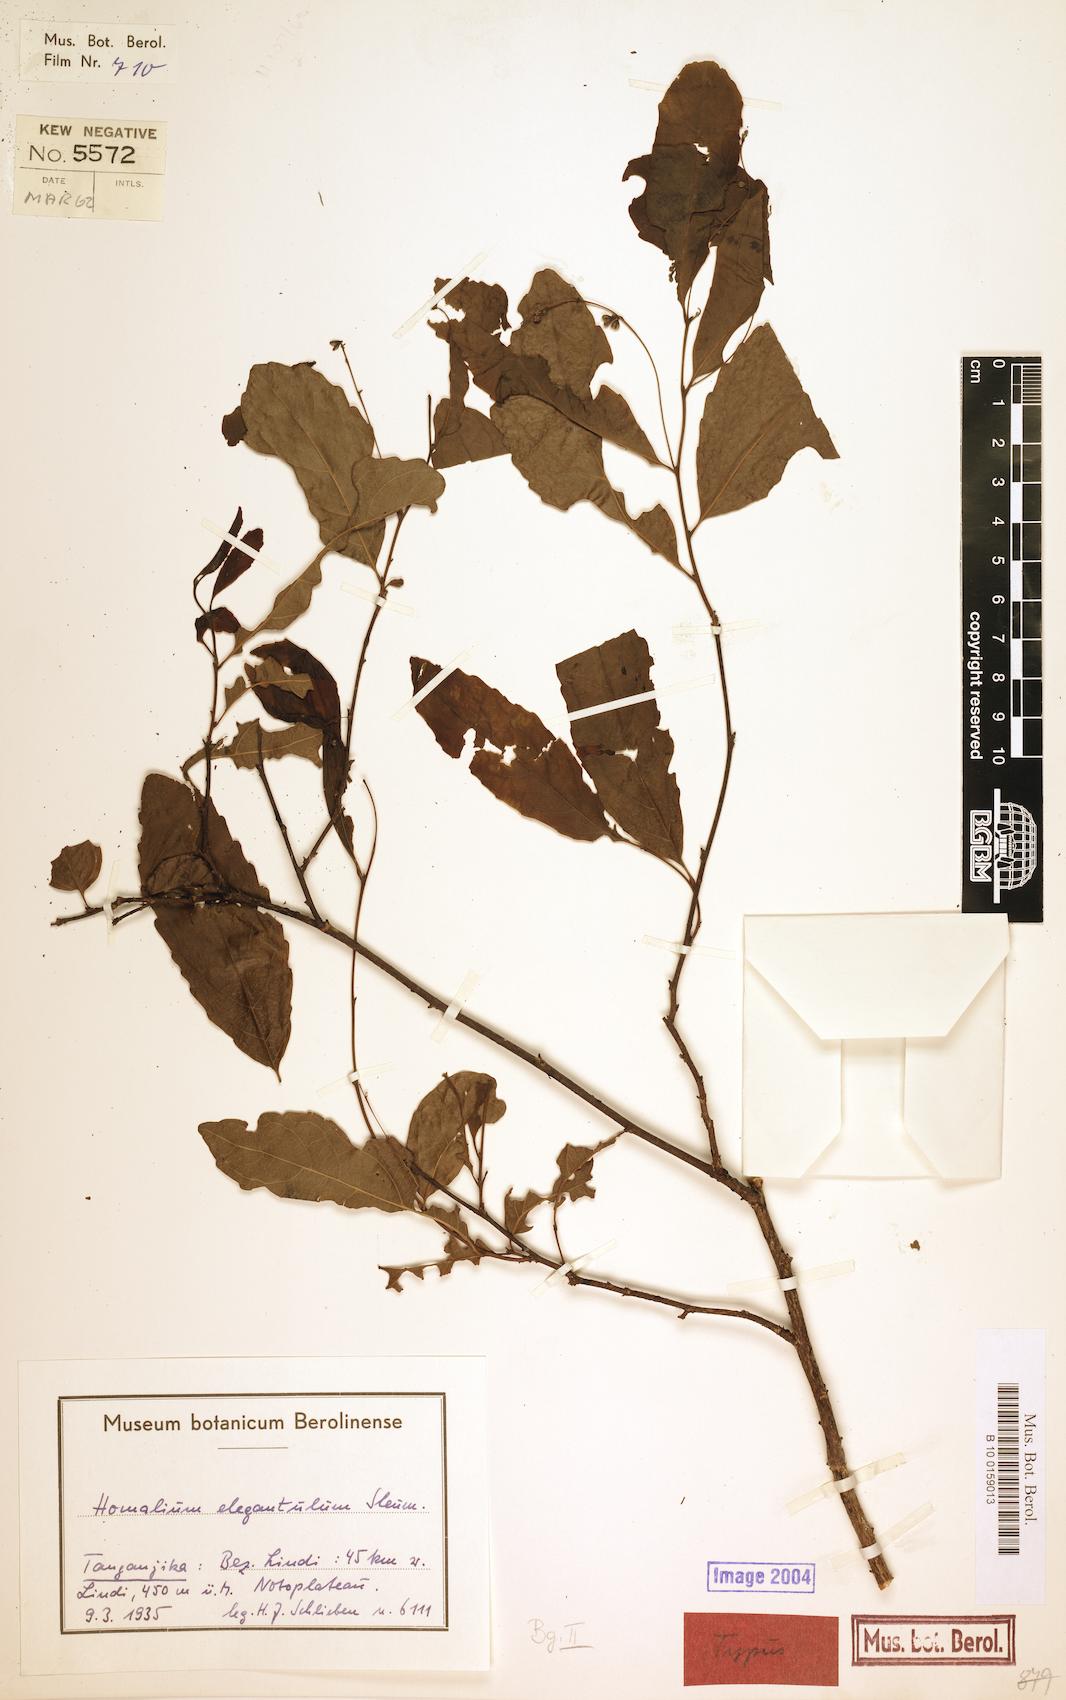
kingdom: Plantae
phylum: Tracheophyta
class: Magnoliopsida
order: Malpighiales
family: Salicaceae
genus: Homalium
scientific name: Homalium elegantulum
